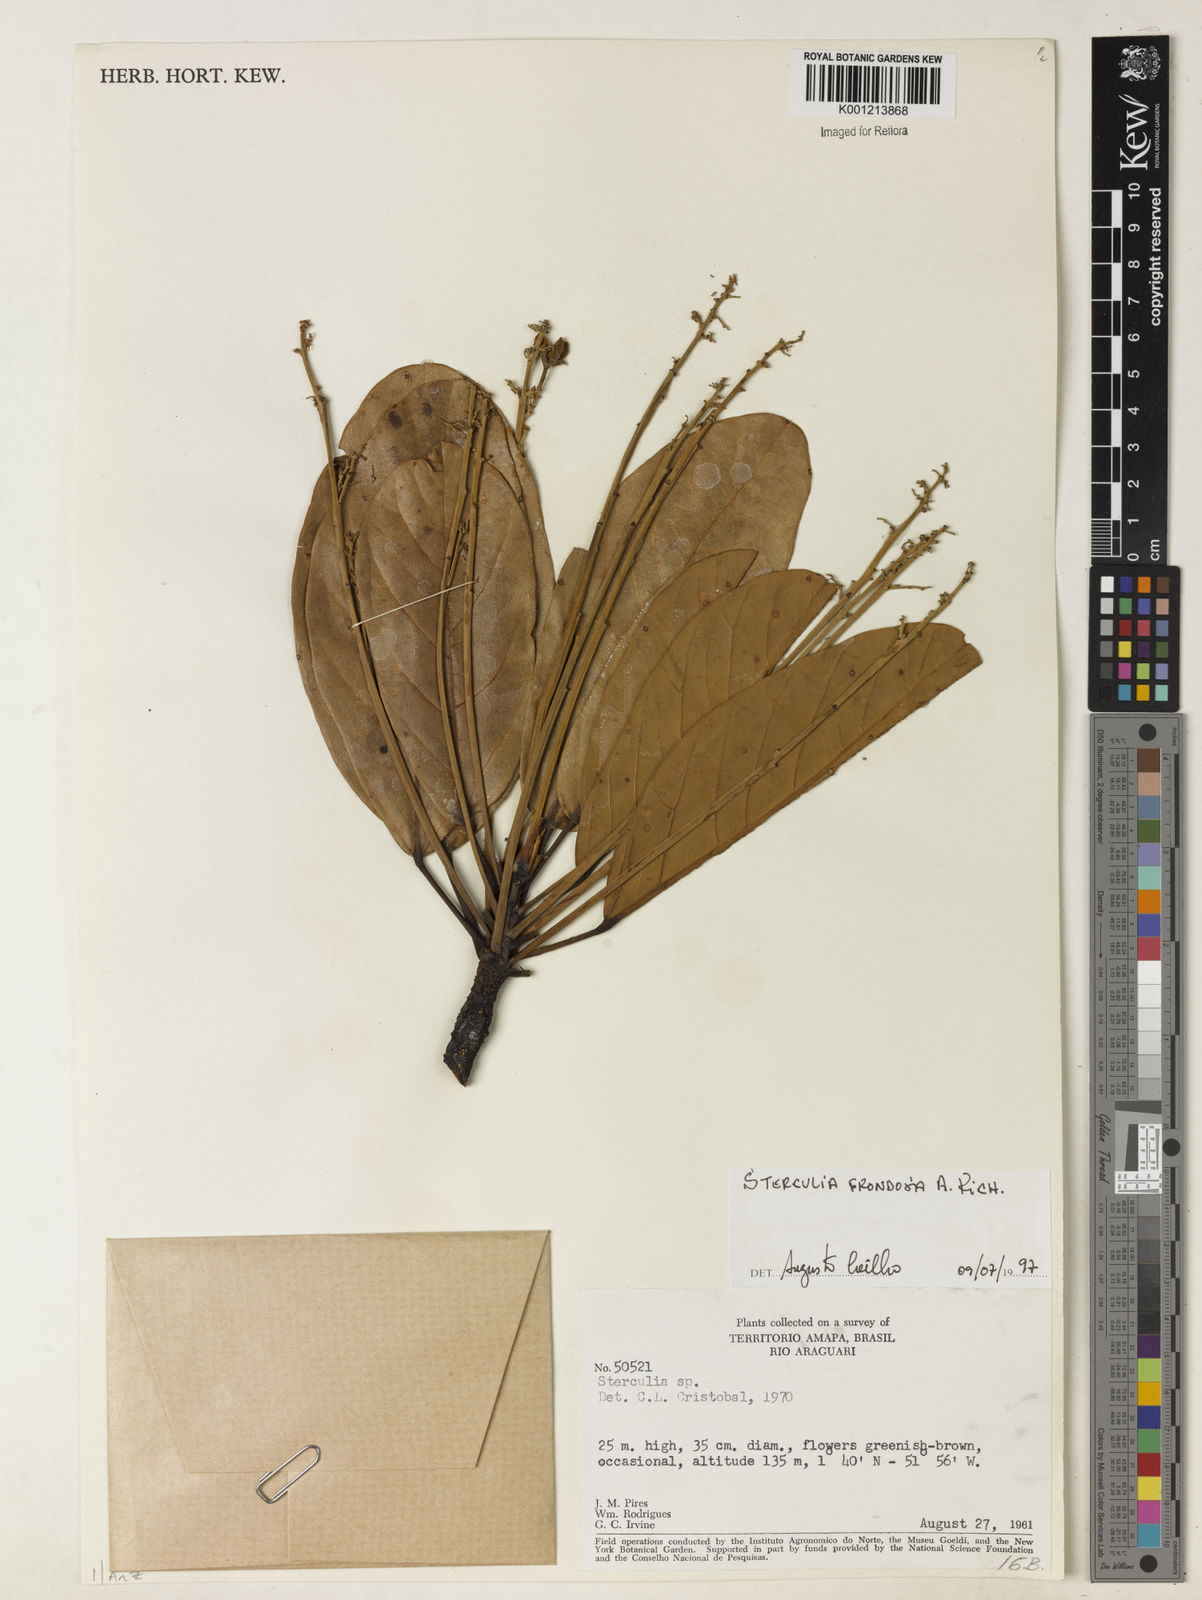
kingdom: Plantae
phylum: Tracheophyta
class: Magnoliopsida
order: Malvales
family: Malvaceae
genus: Sterculia
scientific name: Sterculia frondosa
